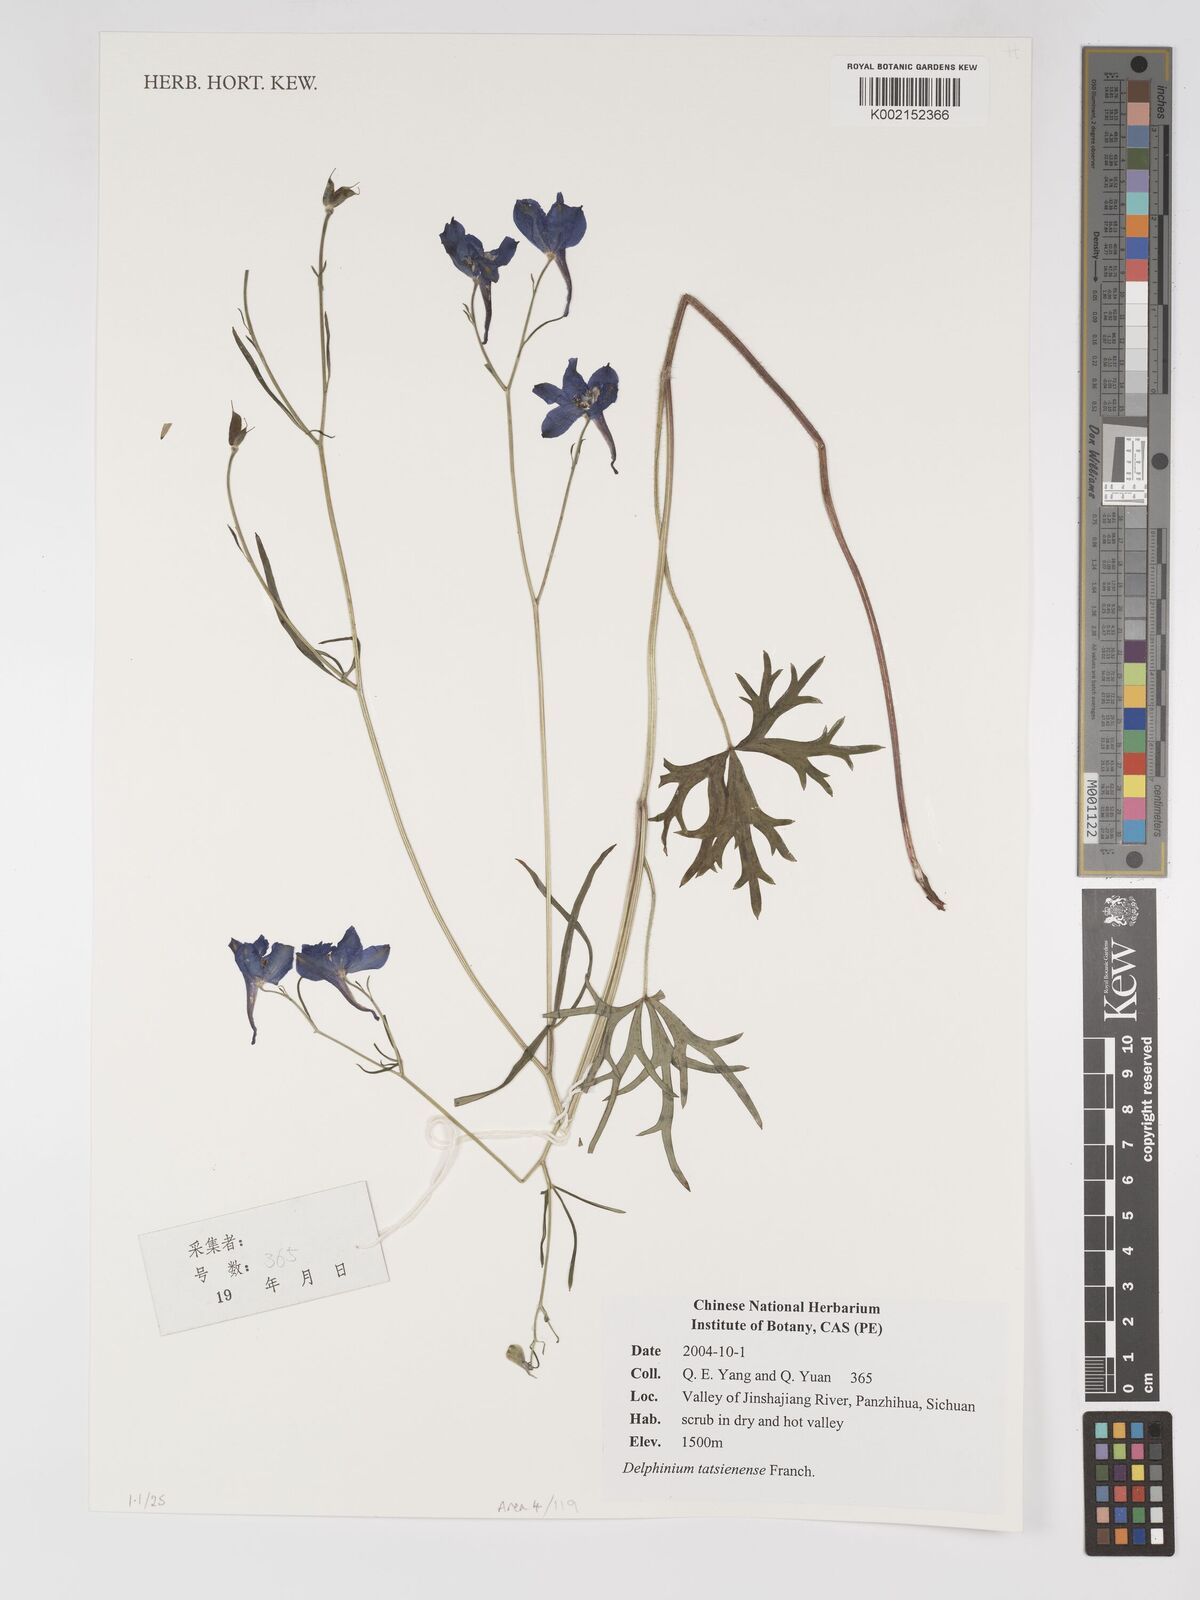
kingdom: Plantae
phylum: Tracheophyta
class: Magnoliopsida
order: Ranunculales
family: Ranunculaceae
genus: Delphinium
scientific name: Delphinium tatsienense
